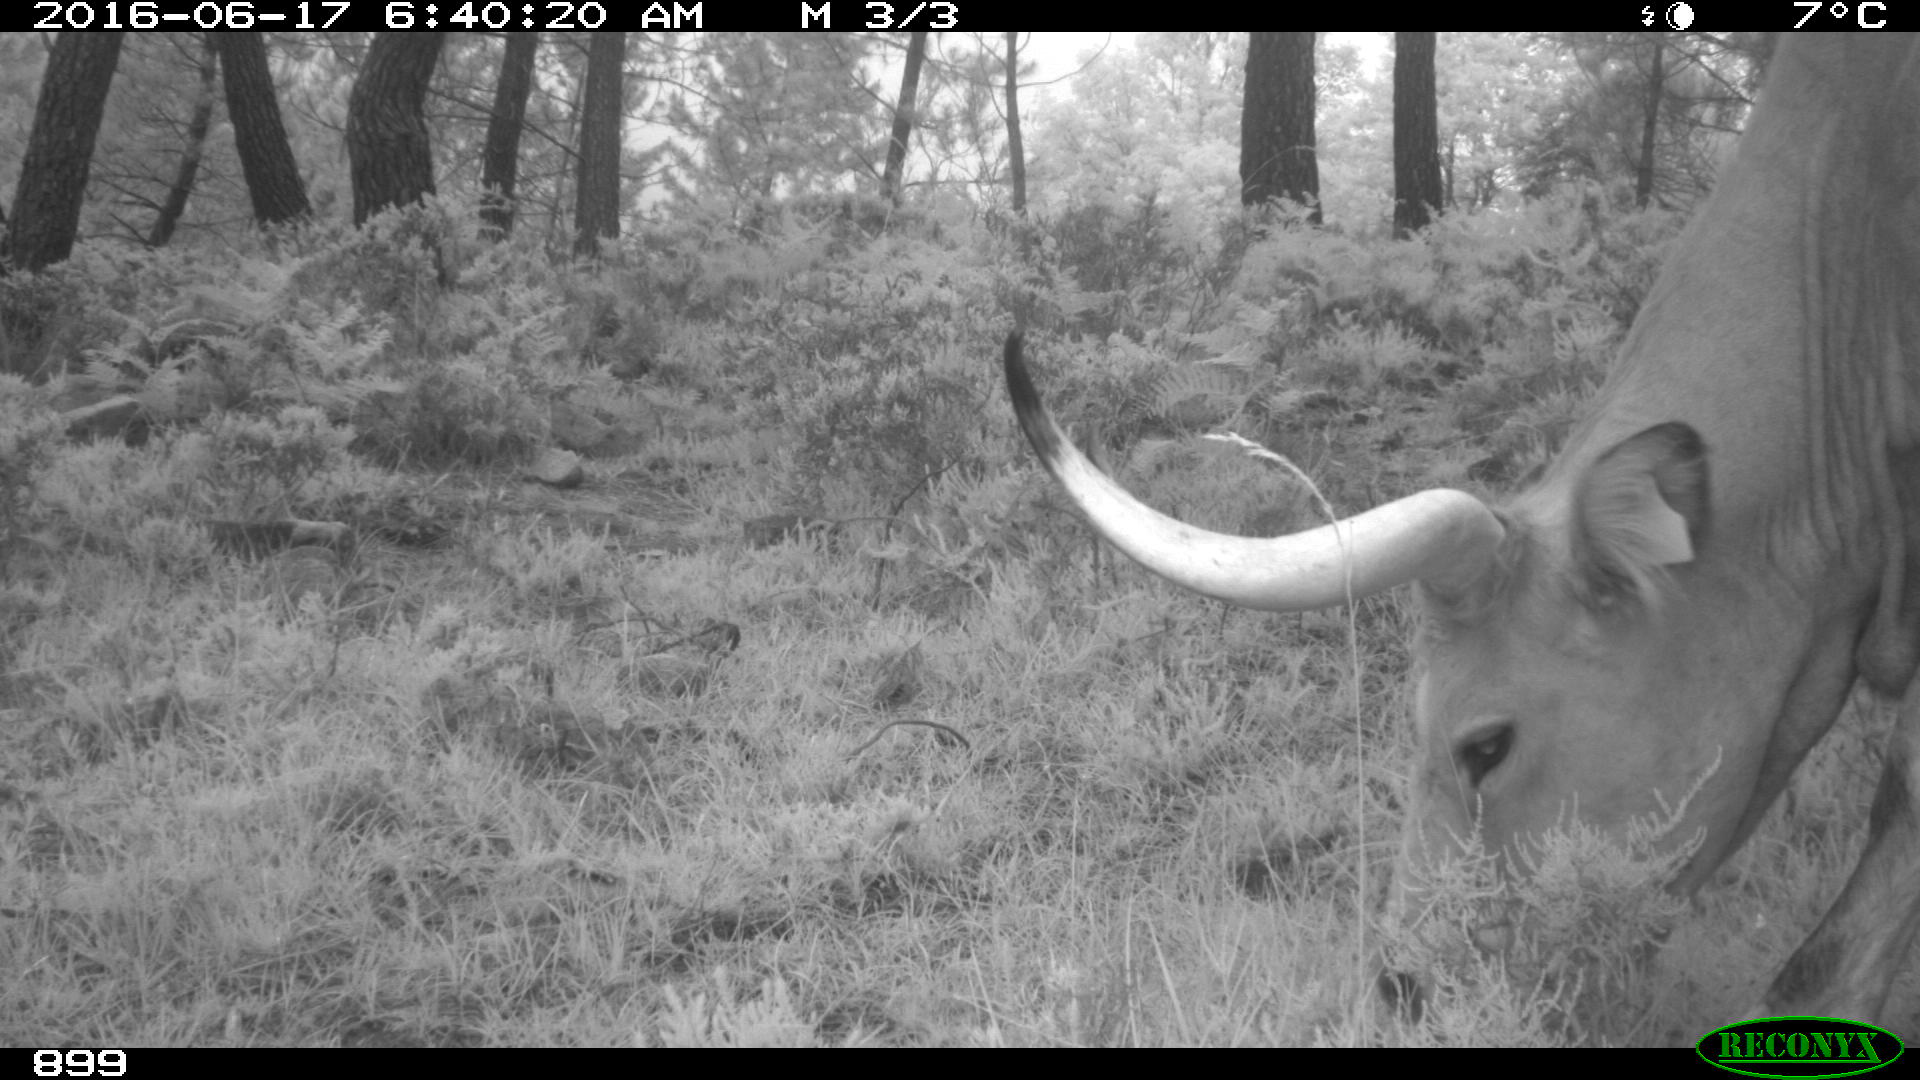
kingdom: Animalia
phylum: Chordata
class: Mammalia
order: Artiodactyla
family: Bovidae
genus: Bos
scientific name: Bos taurus
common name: Domesticated cattle
